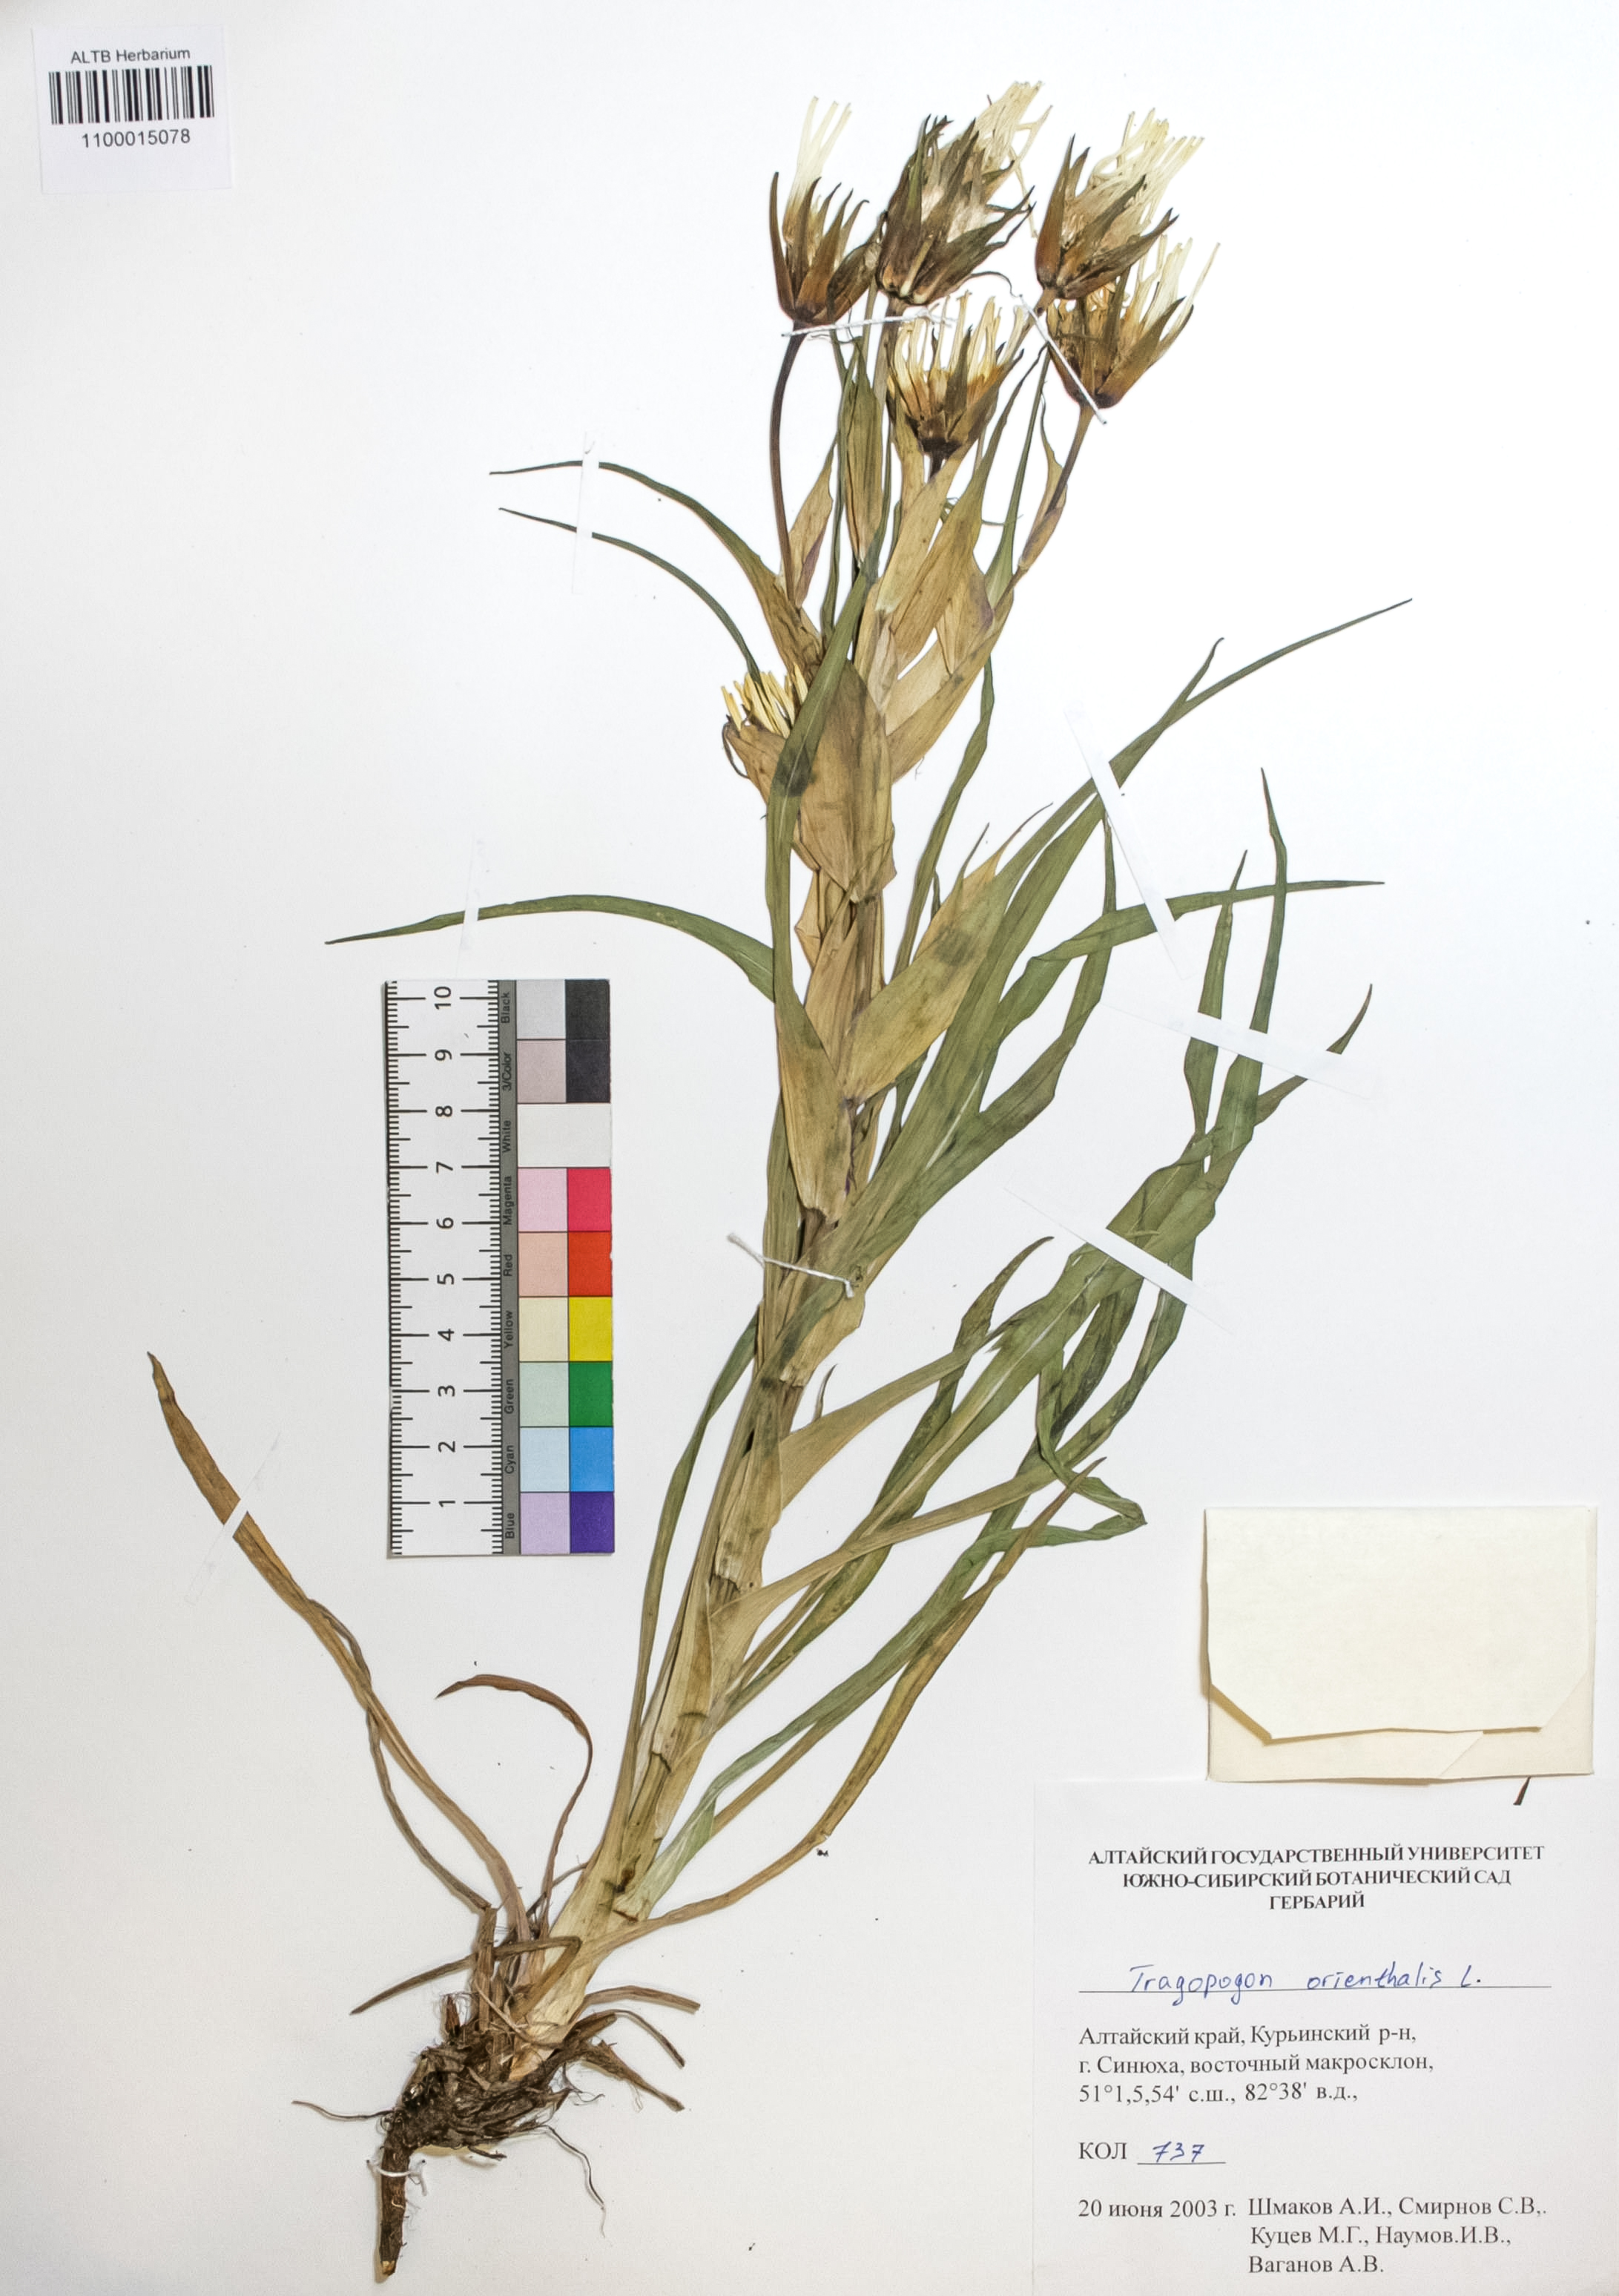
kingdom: Plantae
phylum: Tracheophyta
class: Magnoliopsida
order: Asterales
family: Asteraceae
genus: Tragopogon
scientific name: Tragopogon orientalis
